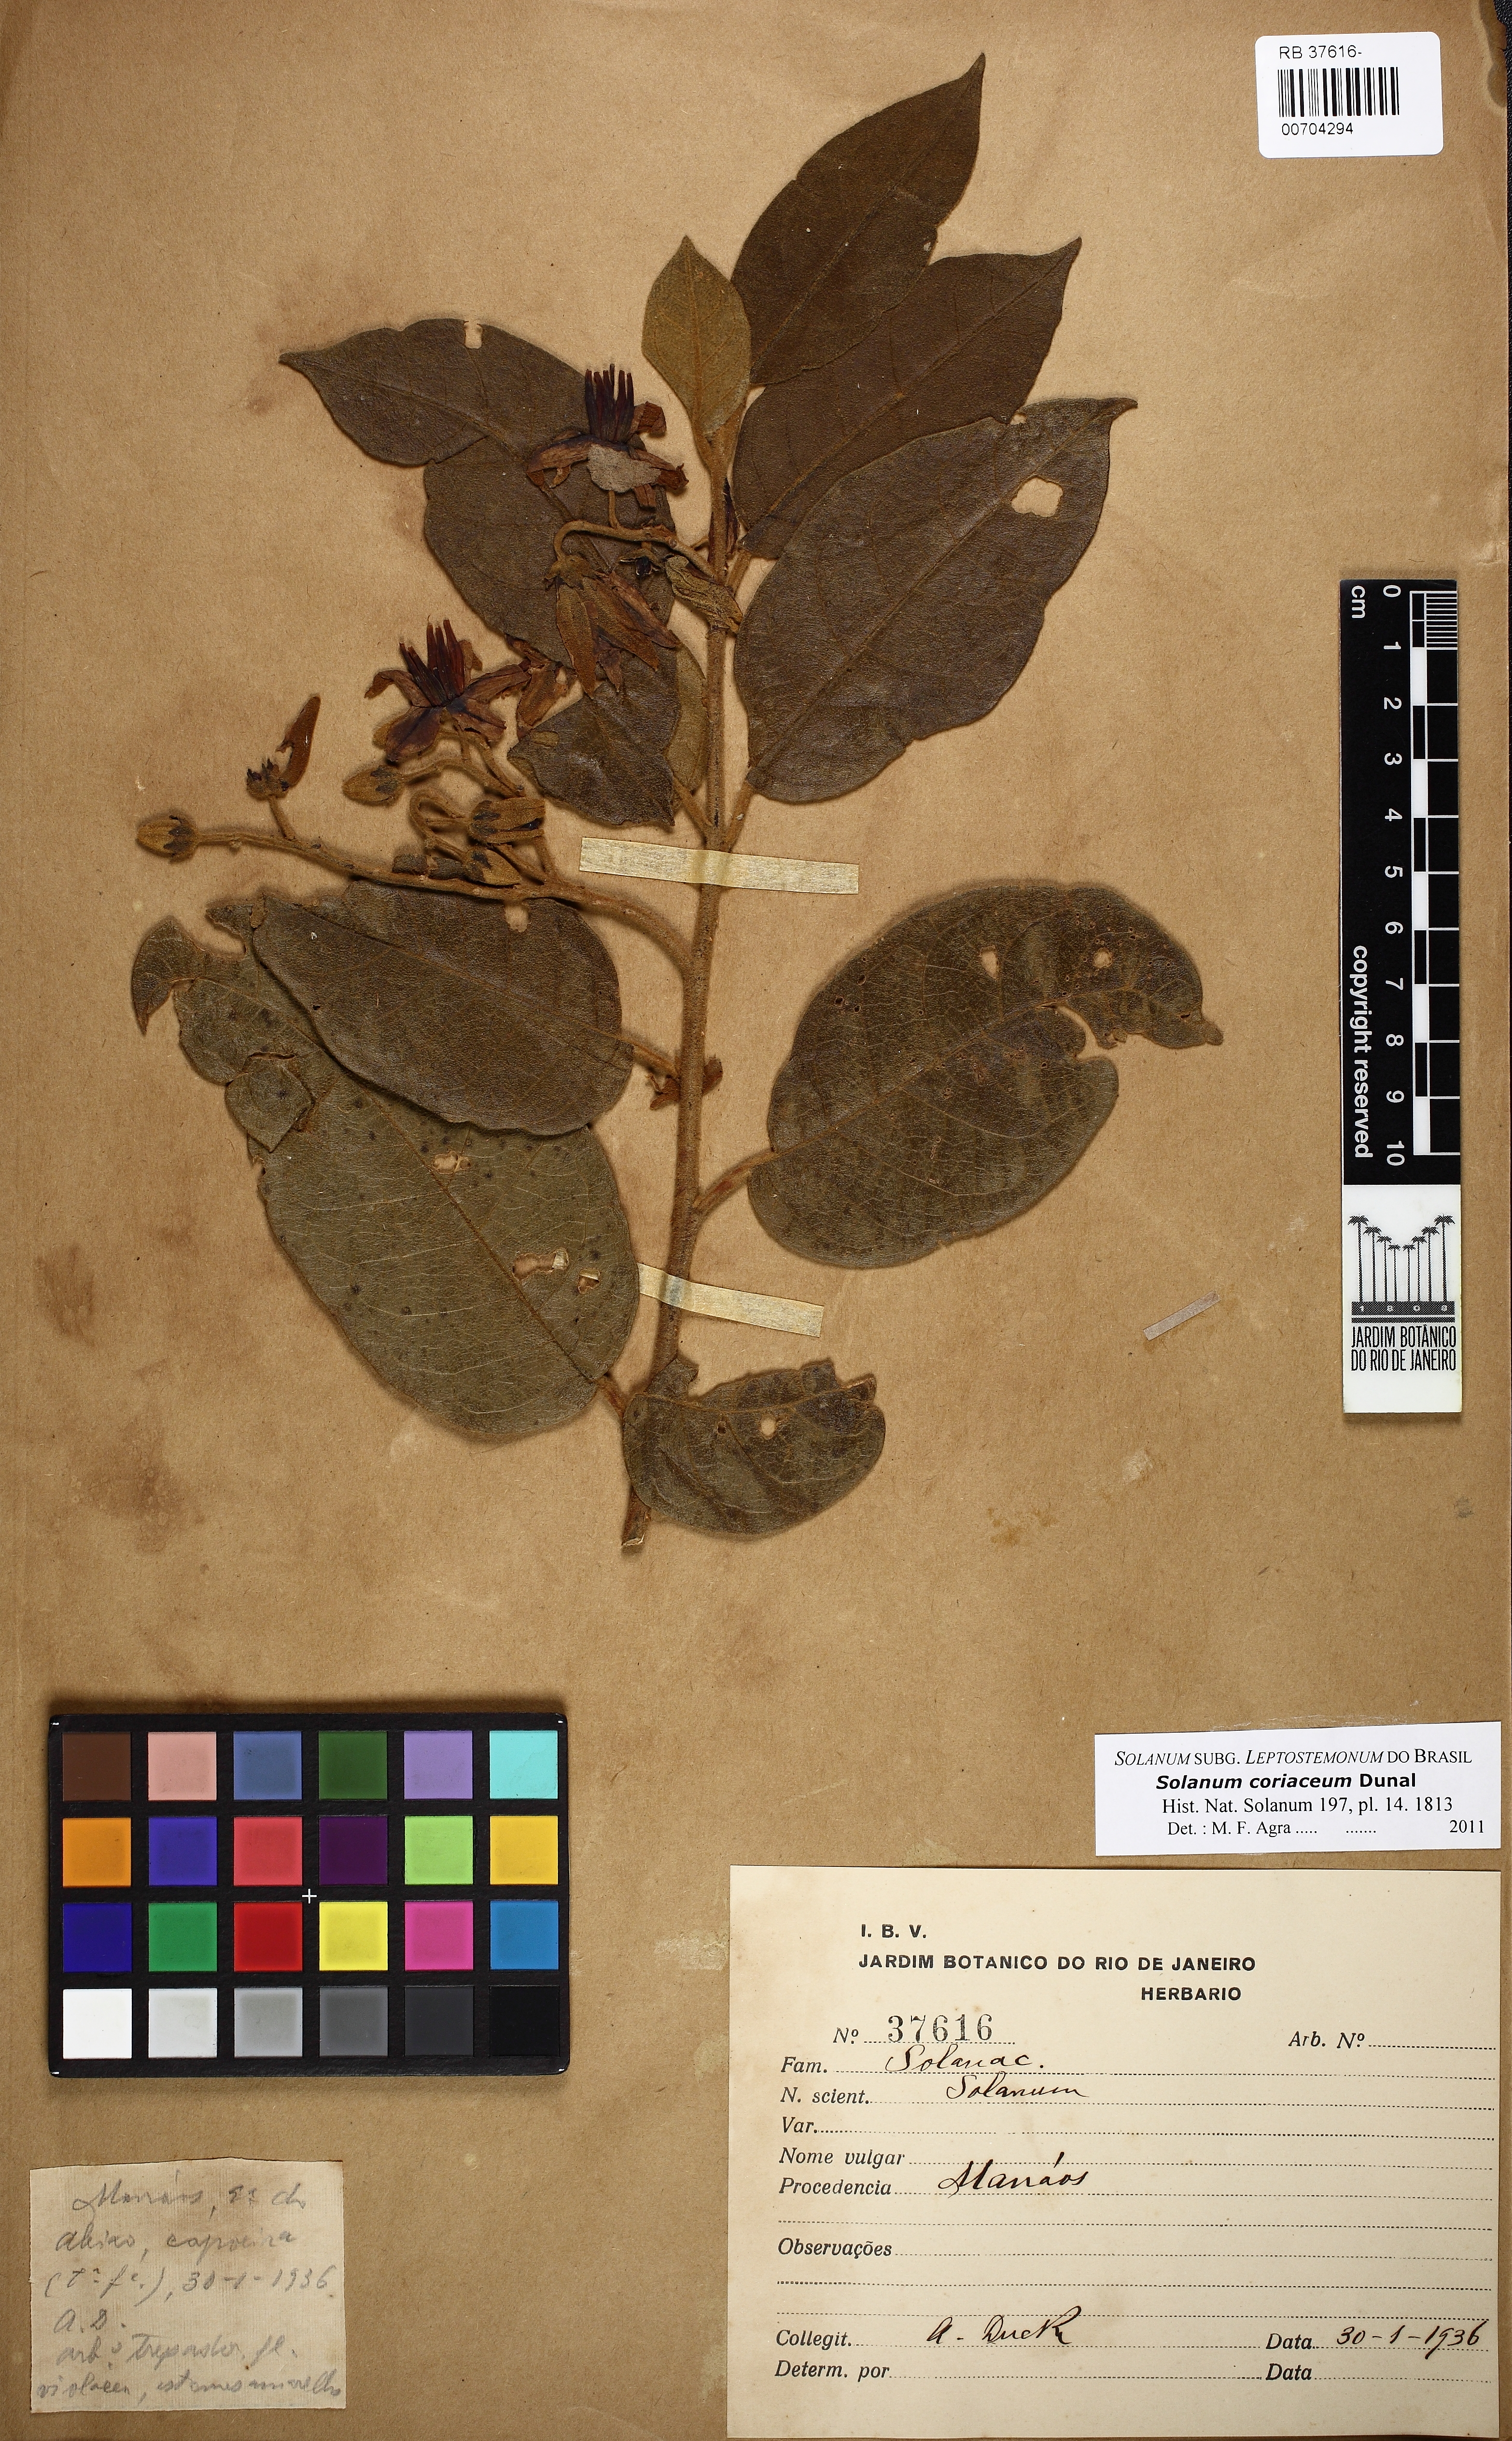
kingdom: Plantae
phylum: Tracheophyta
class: Magnoliopsida
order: Solanales
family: Solanaceae
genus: Solanum
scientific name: Solanum coriaceum
